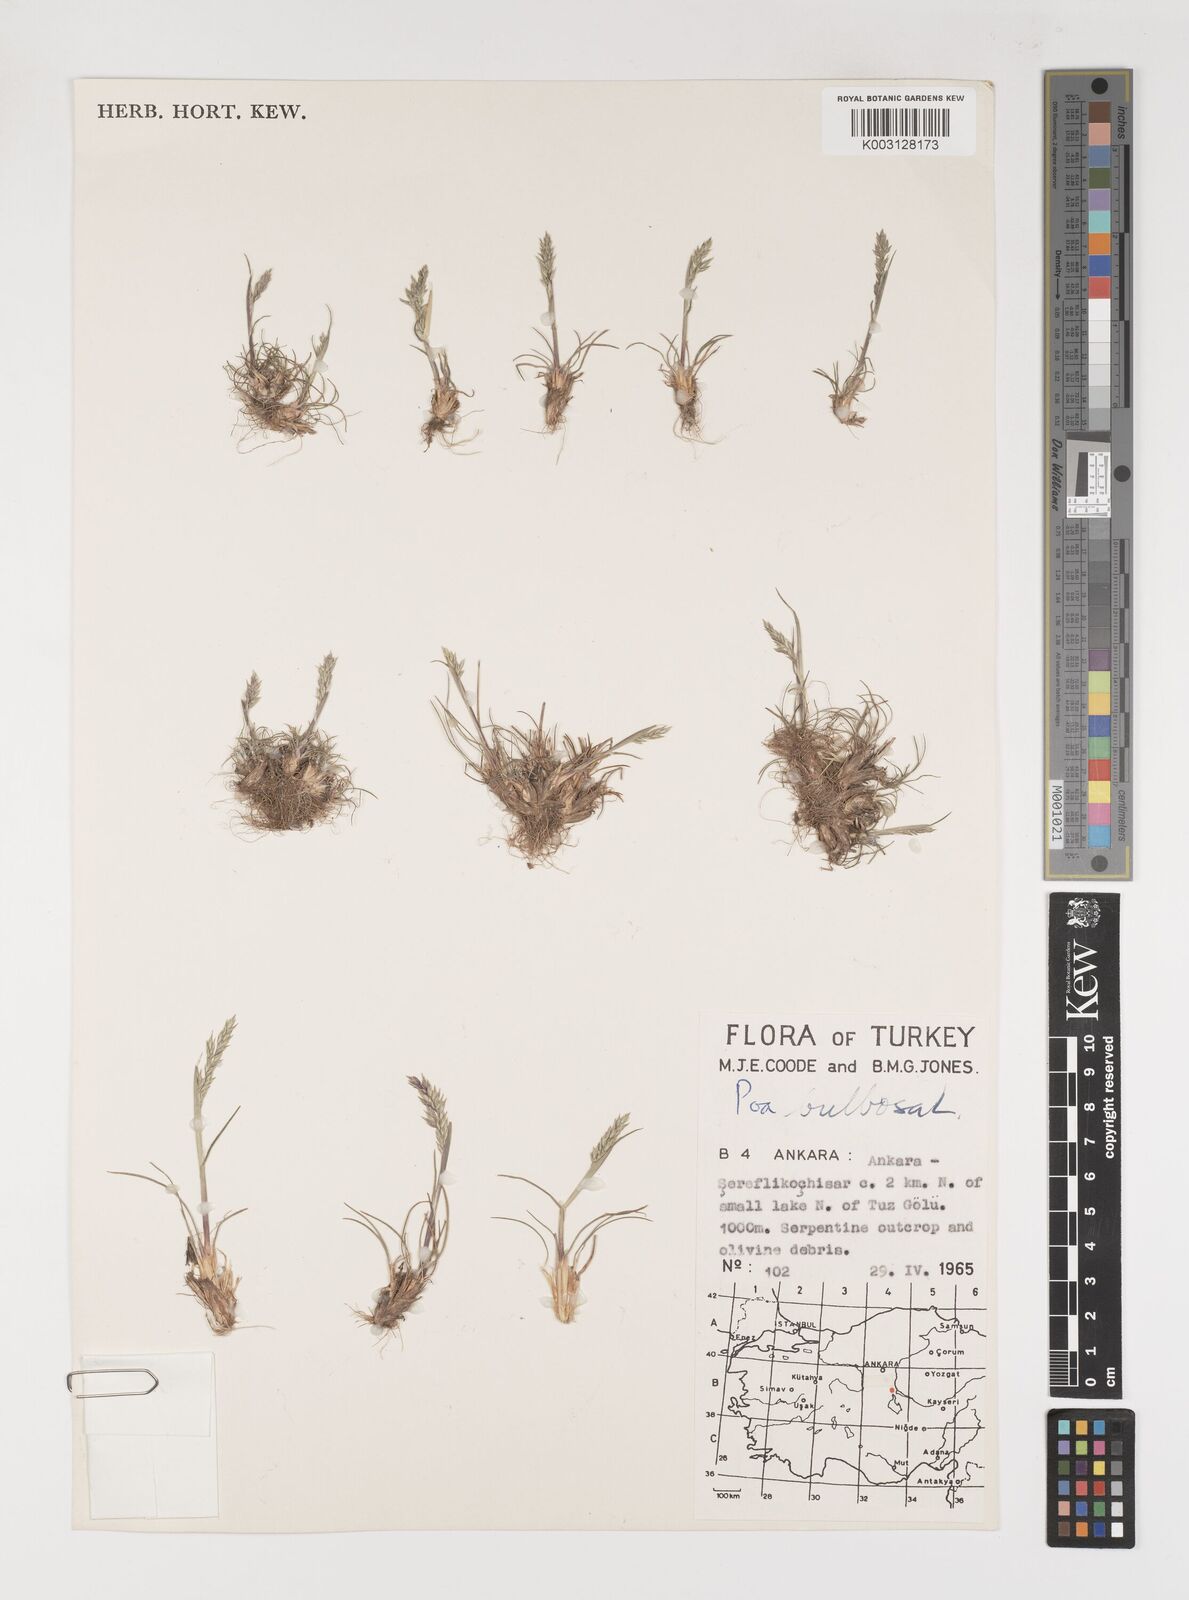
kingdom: Plantae
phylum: Tracheophyta
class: Liliopsida
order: Poales
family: Poaceae
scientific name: Poaceae
